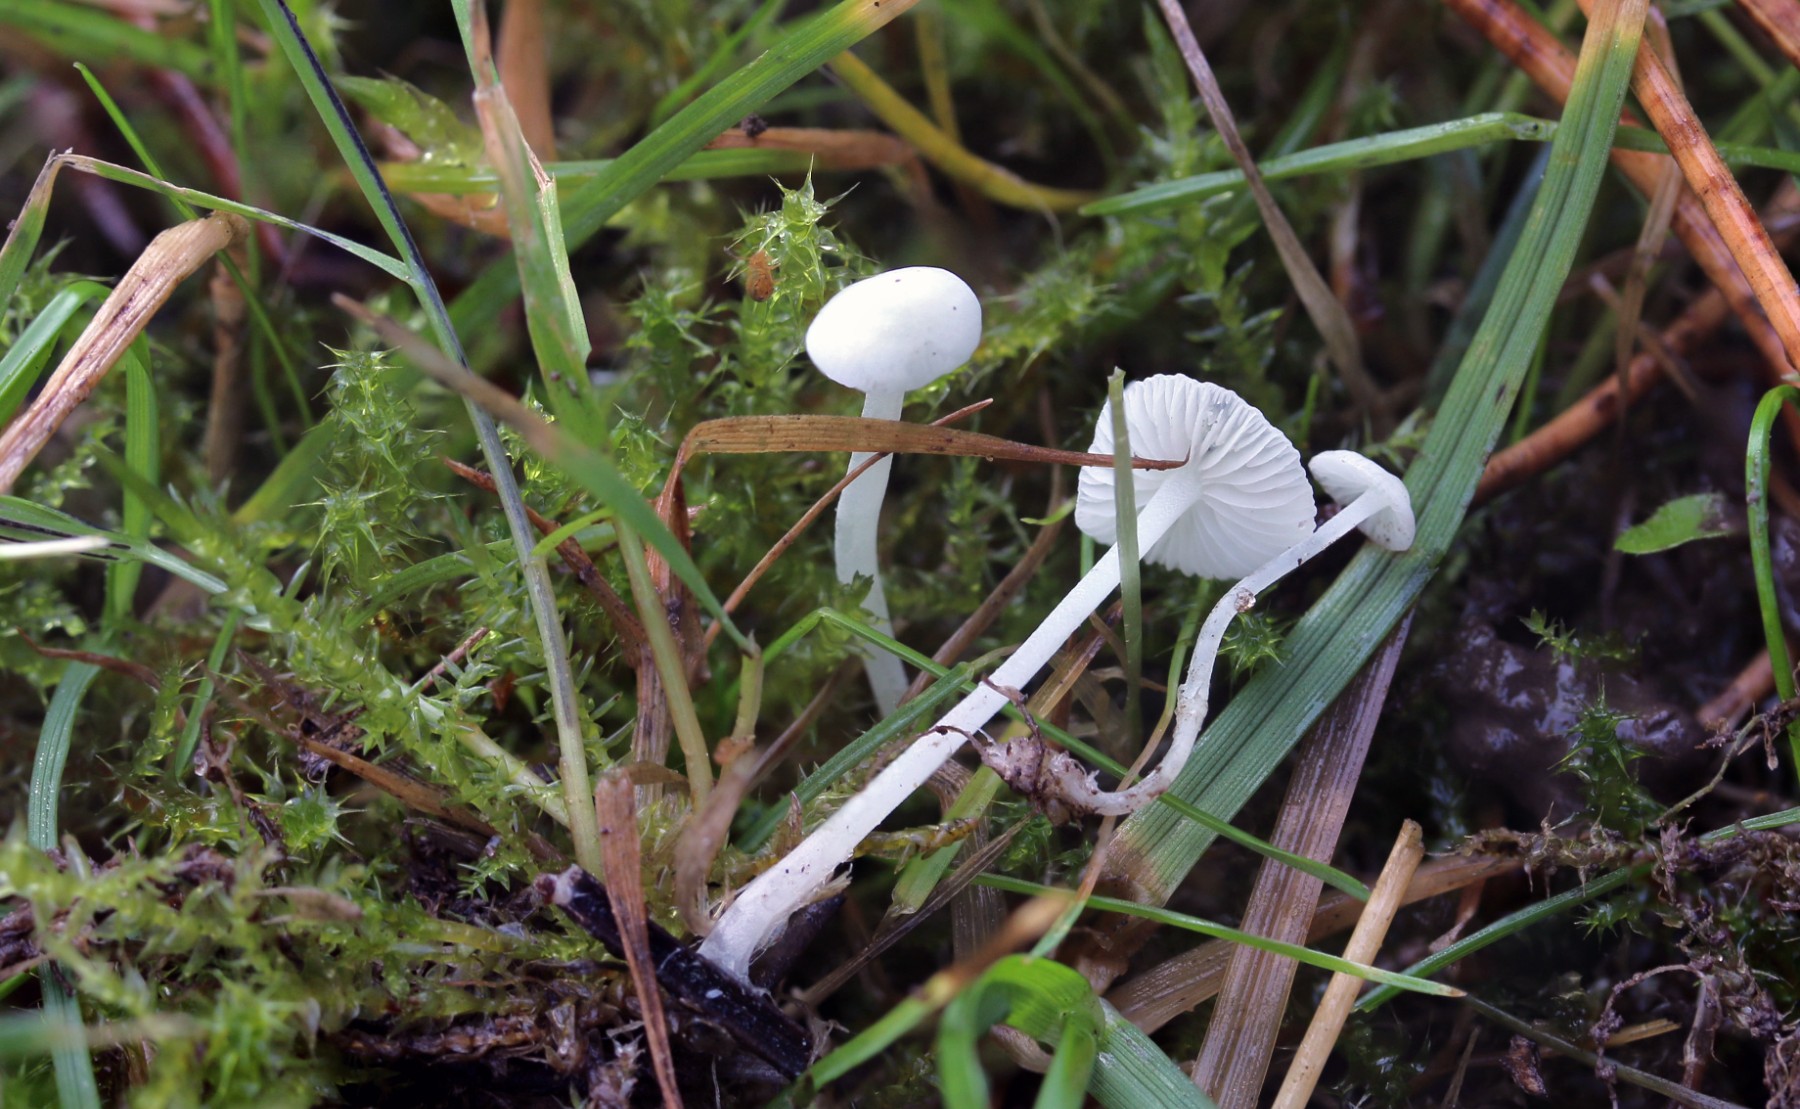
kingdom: Fungi
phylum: Basidiomycota
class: Agaricomycetes
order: Agaricales
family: Mycenaceae
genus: Hemimycena
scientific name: Hemimycena lactea
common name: mælkehvid huesvamp
